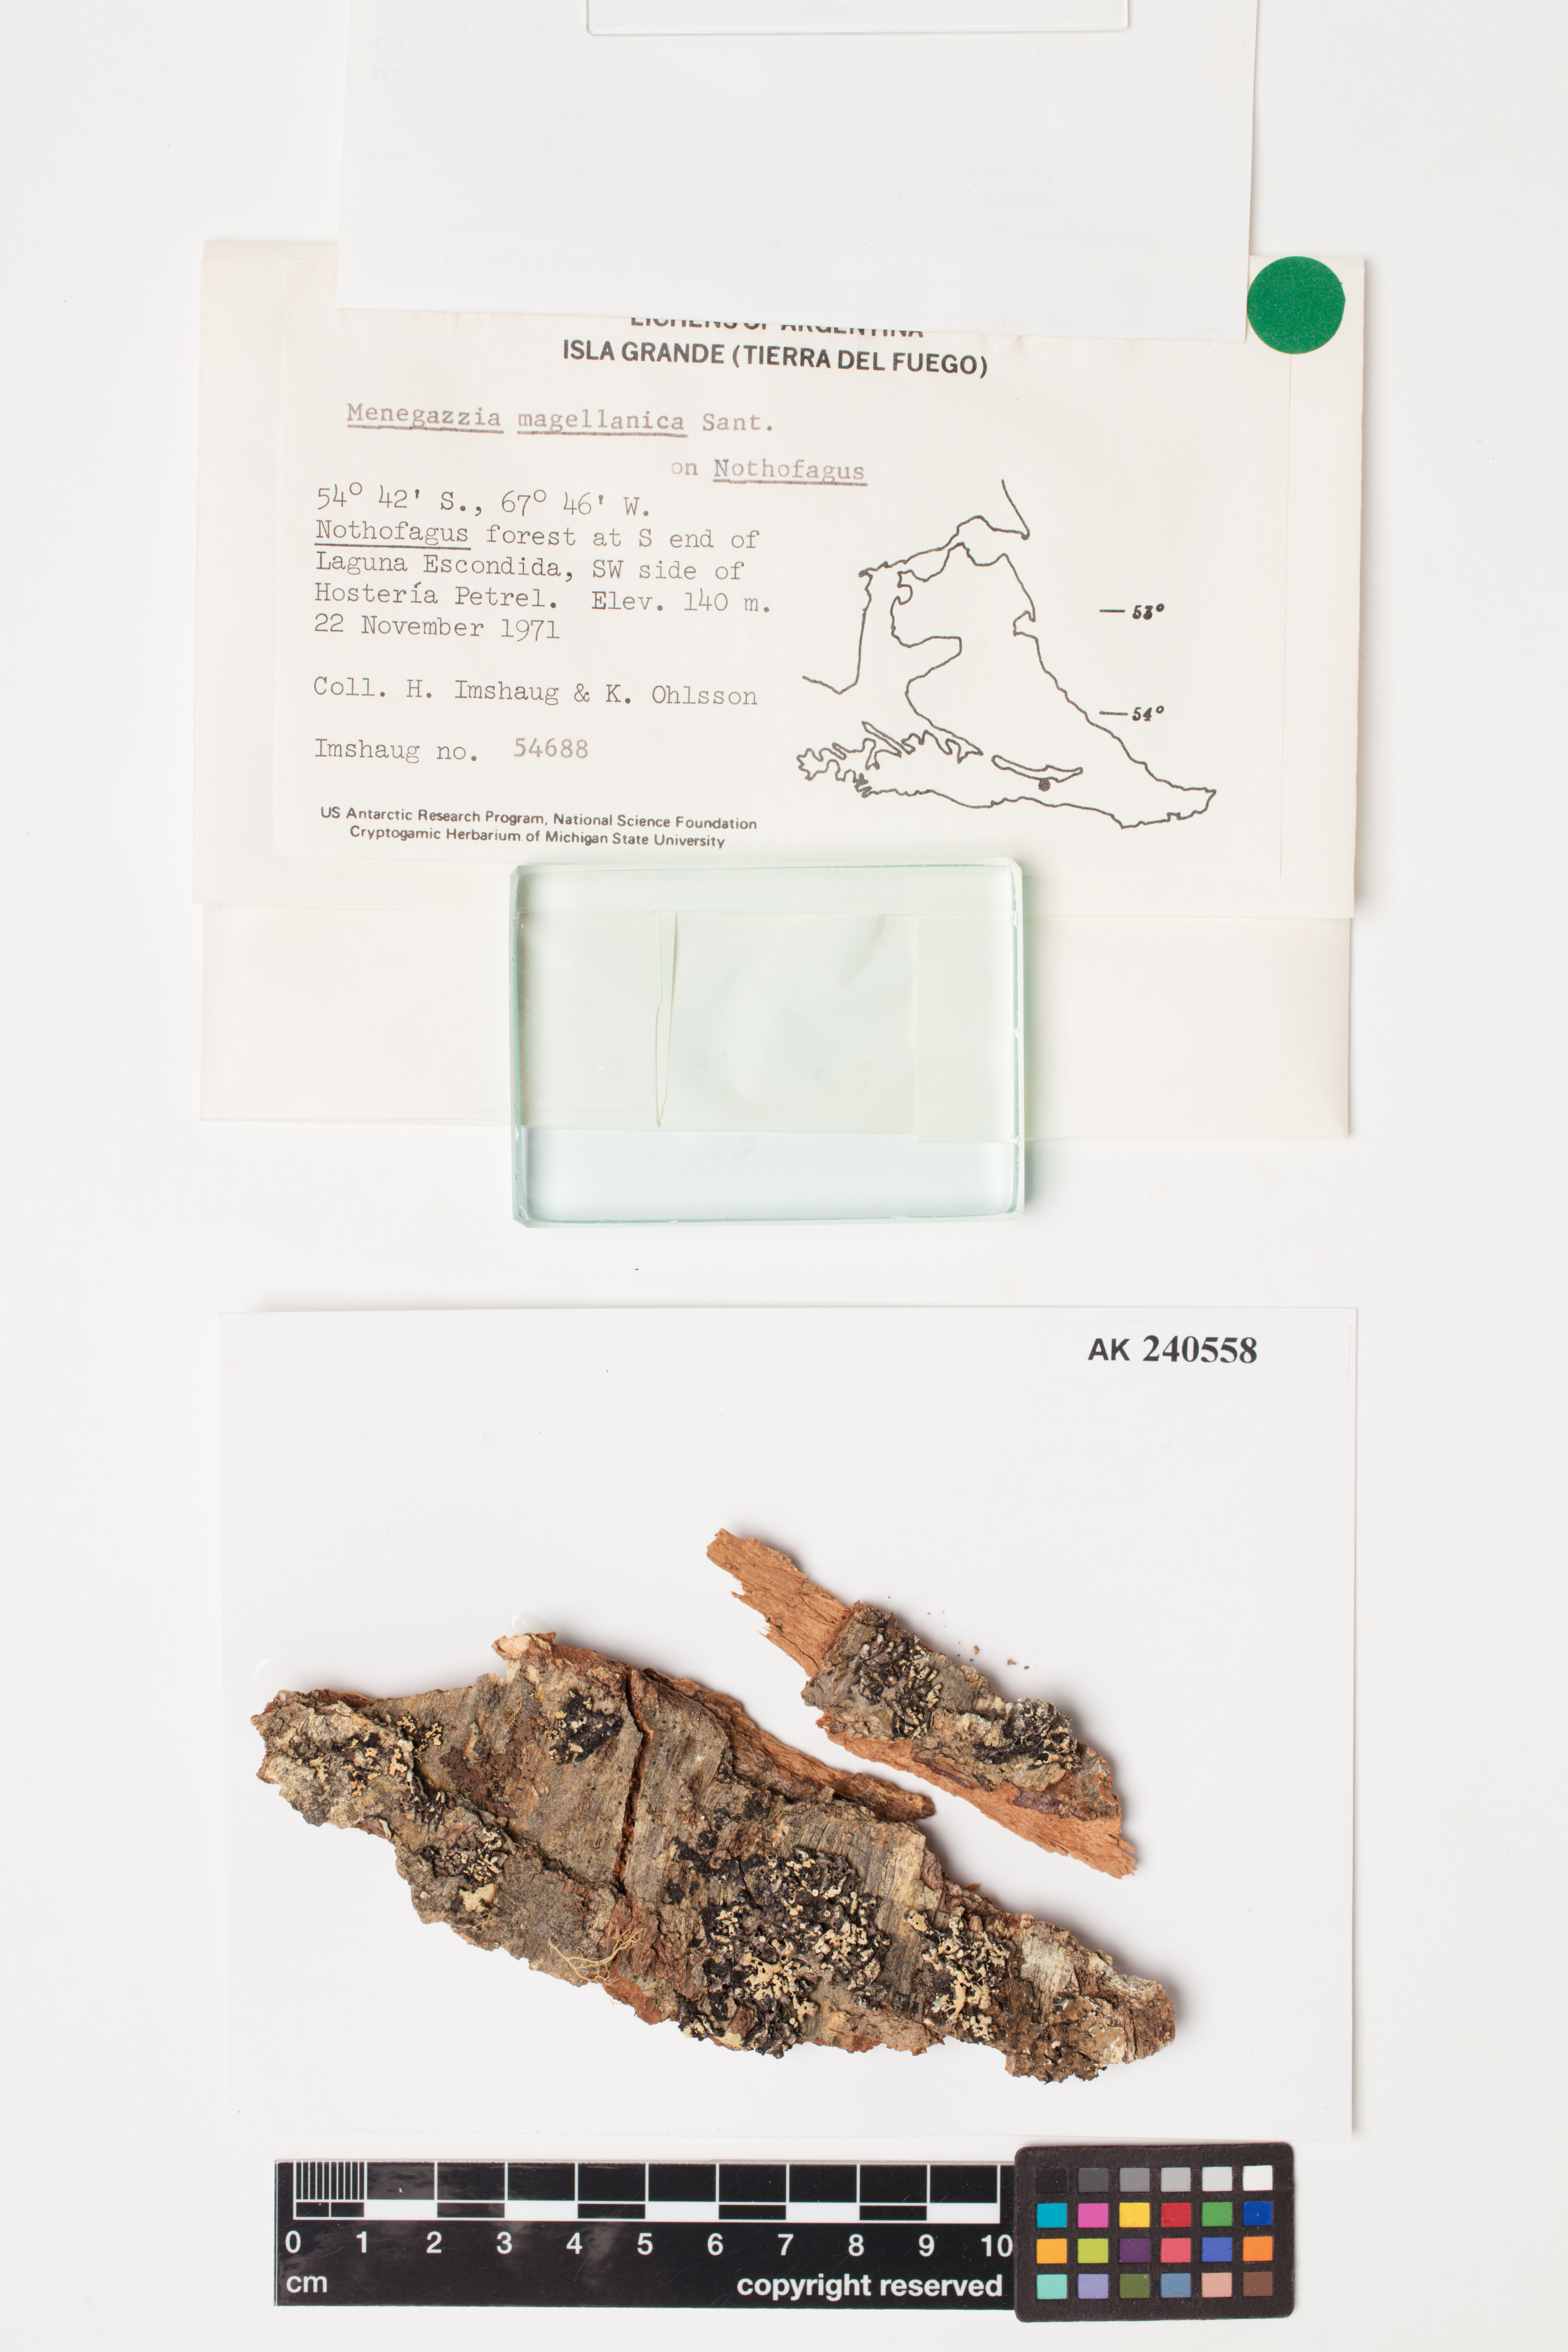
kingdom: Fungi
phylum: Ascomycota
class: Lecanoromycetes
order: Lecanorales
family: Parmeliaceae
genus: Menegazzia
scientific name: Menegazzia subpertusa
